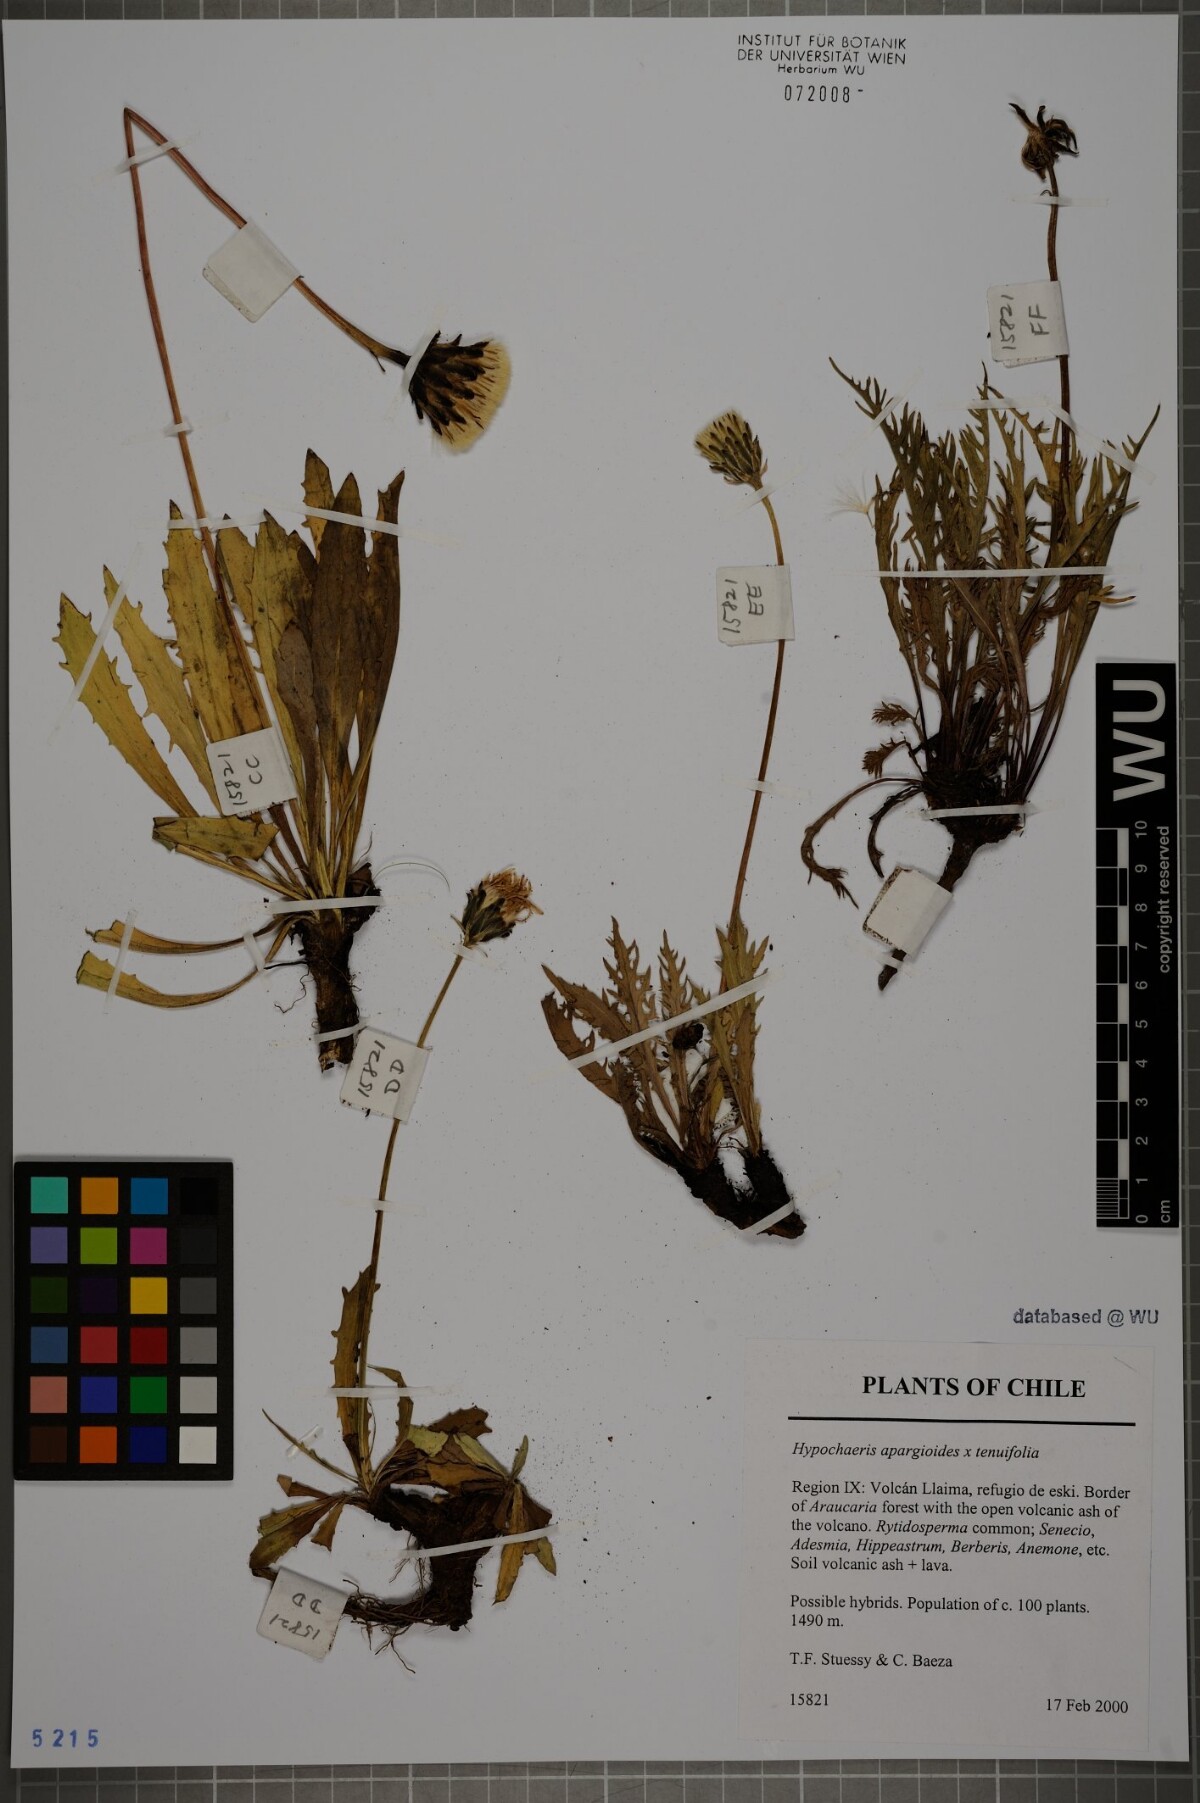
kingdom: Plantae
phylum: Tracheophyta
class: Magnoliopsida
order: Asterales
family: Asteraceae
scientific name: Asteraceae
